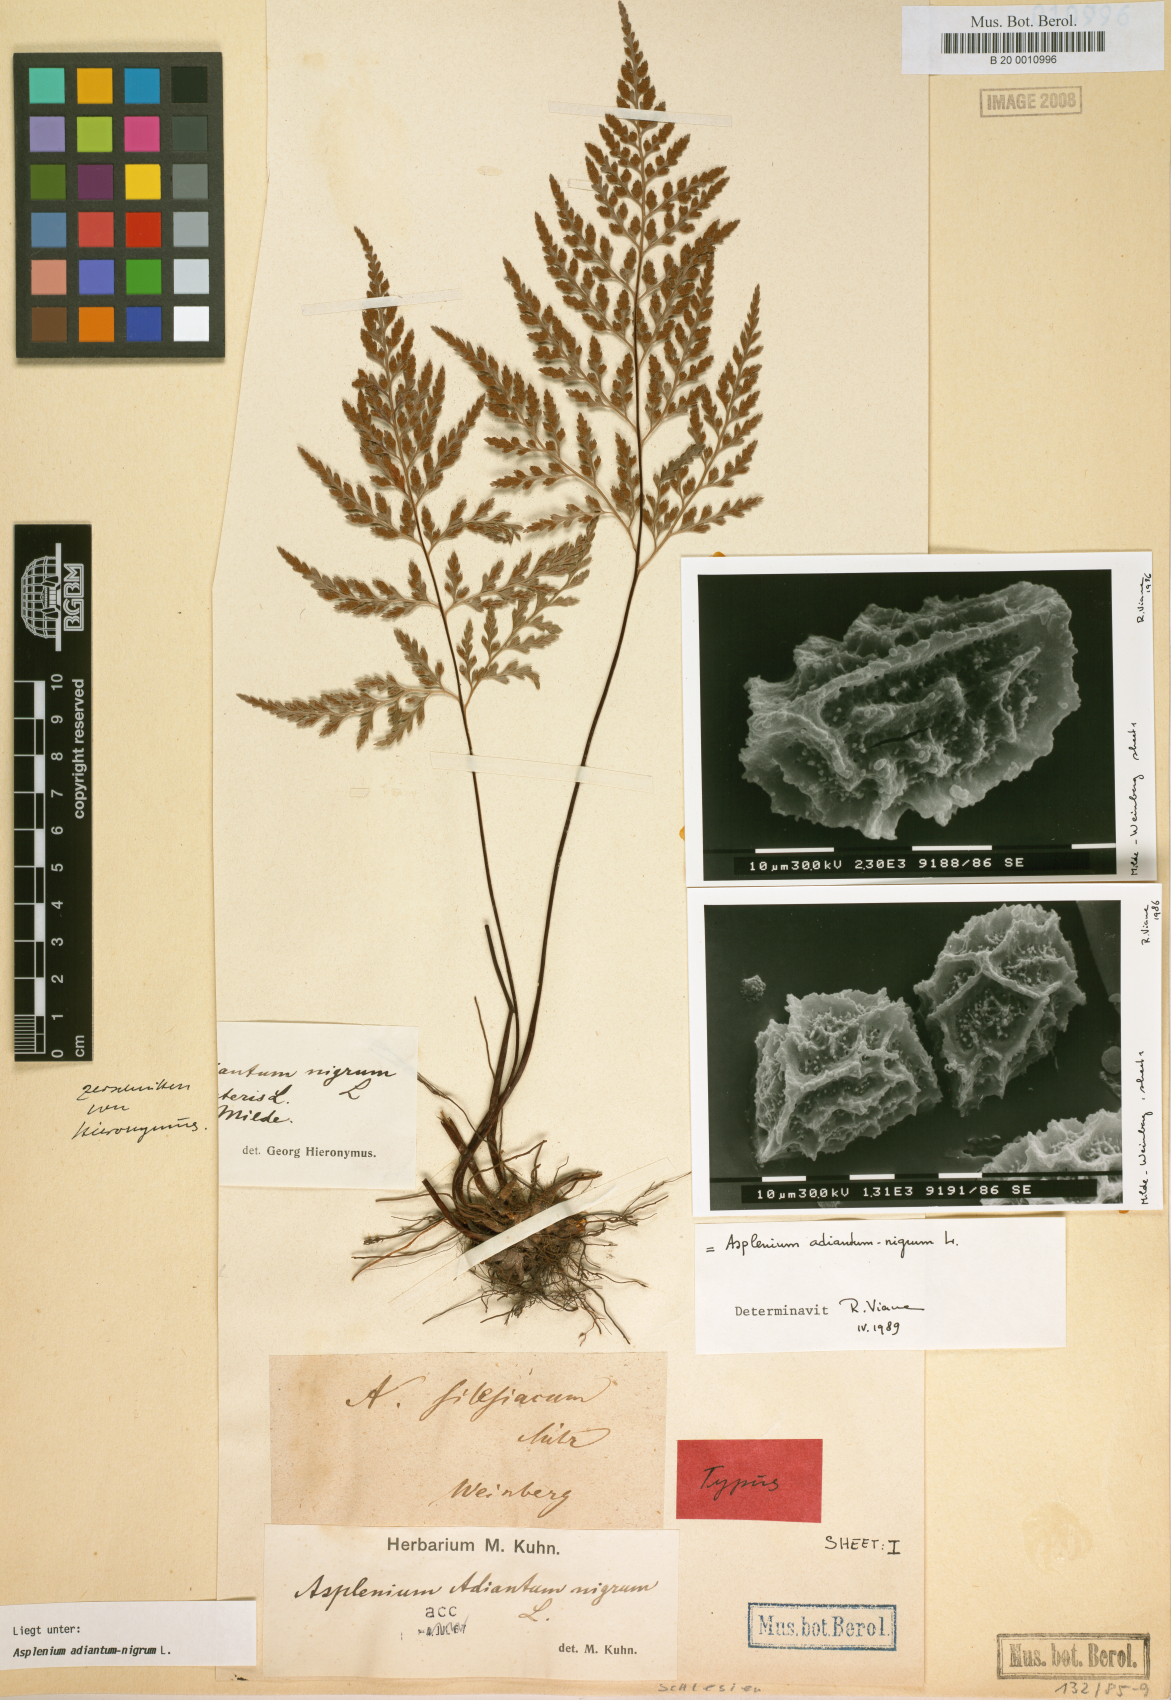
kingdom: Plantae
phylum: Tracheophyta
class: Polypodiopsida
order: Polypodiales
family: Aspleniaceae
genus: Asplenium
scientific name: Asplenium adiantum-nigrum
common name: Black spleenwort
